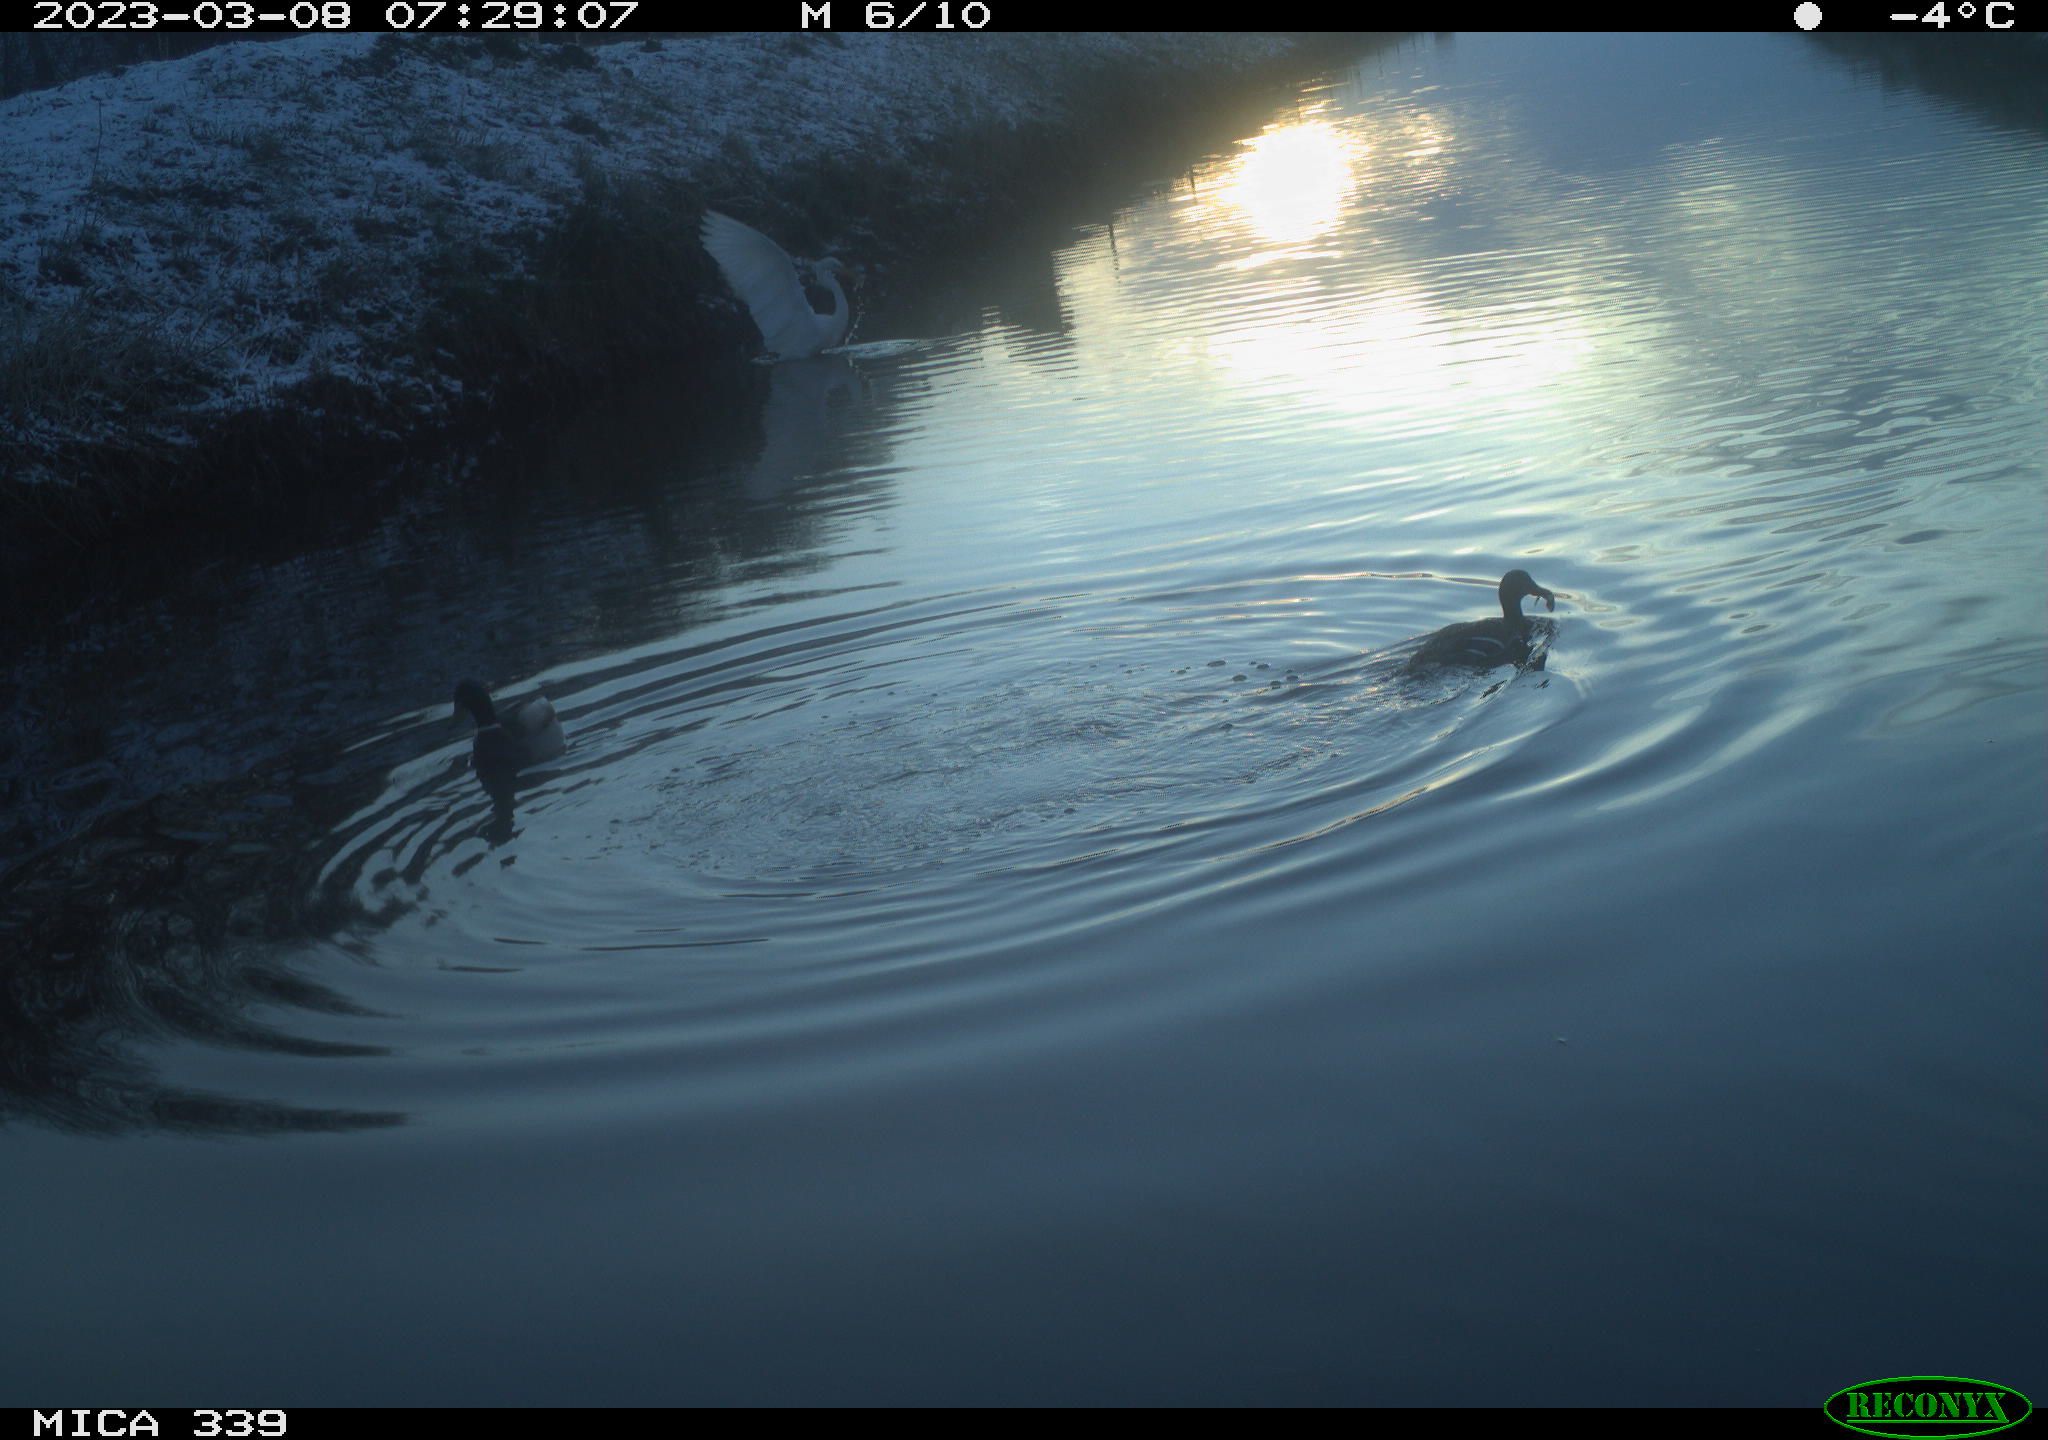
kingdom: Animalia
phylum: Chordata
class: Aves
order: Anseriformes
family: Anatidae
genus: Anas
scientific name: Anas
